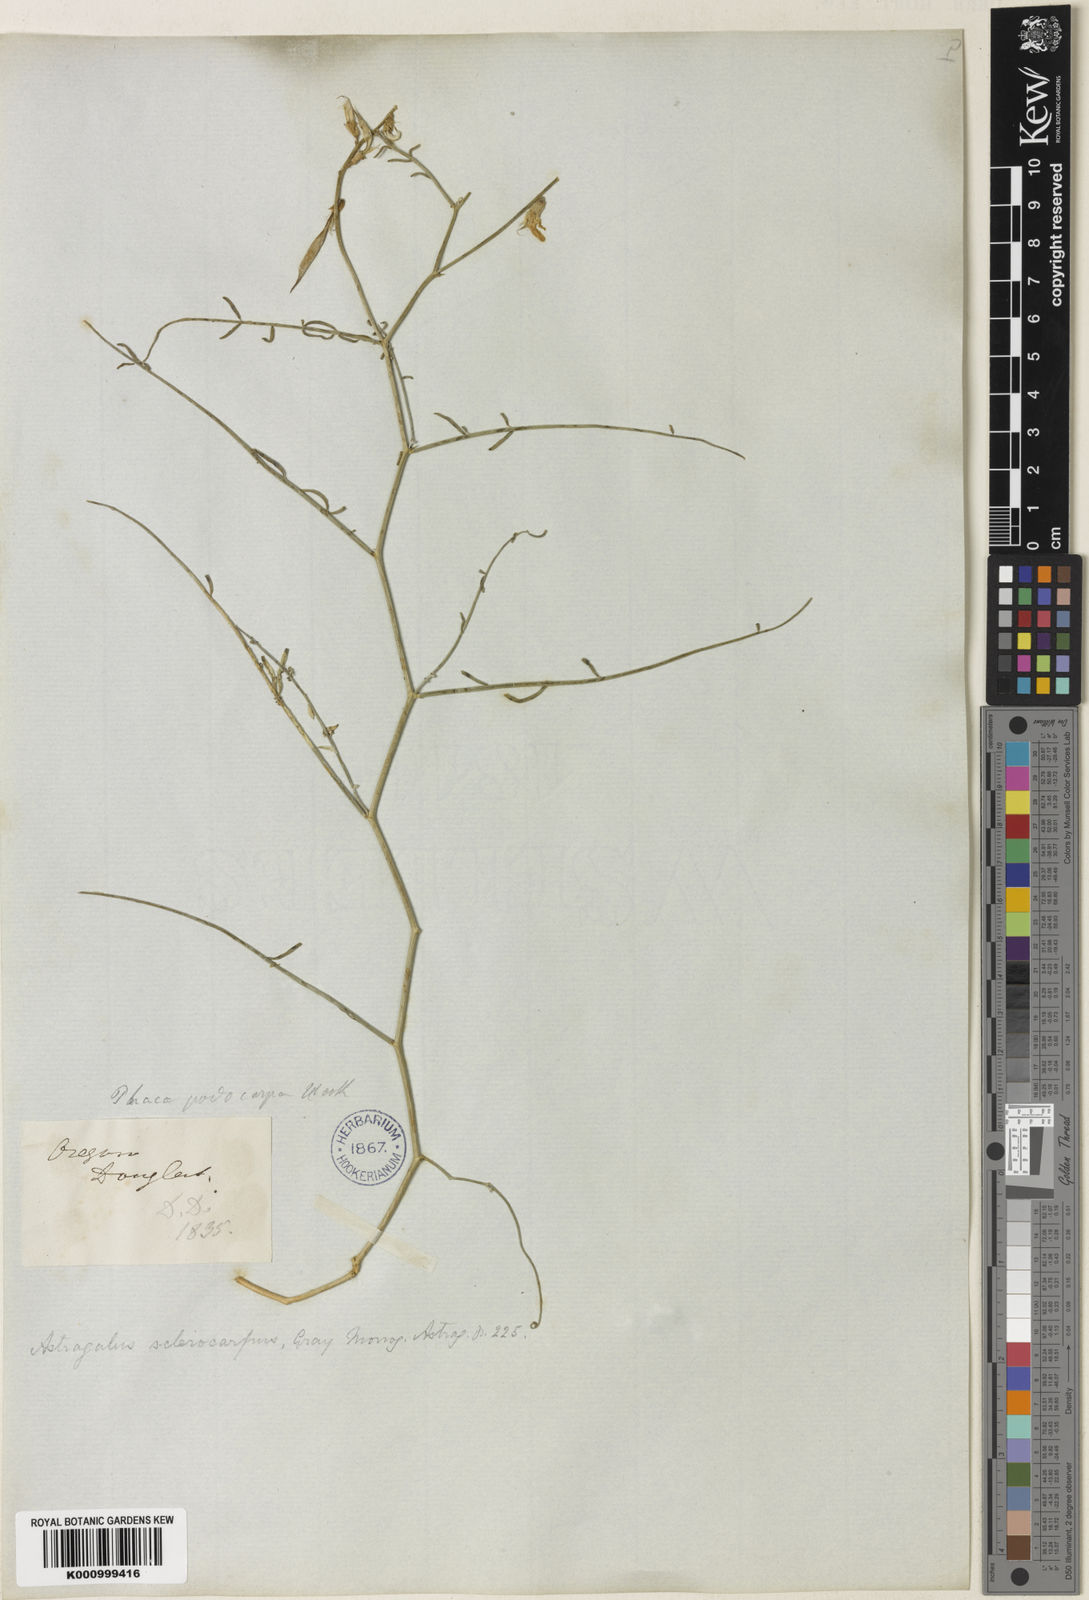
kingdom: Plantae
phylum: Tracheophyta
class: Magnoliopsida
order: Fabales
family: Fabaceae
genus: Astragalus
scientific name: Astragalus sclerocarpus
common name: The dalles milk-vetch
